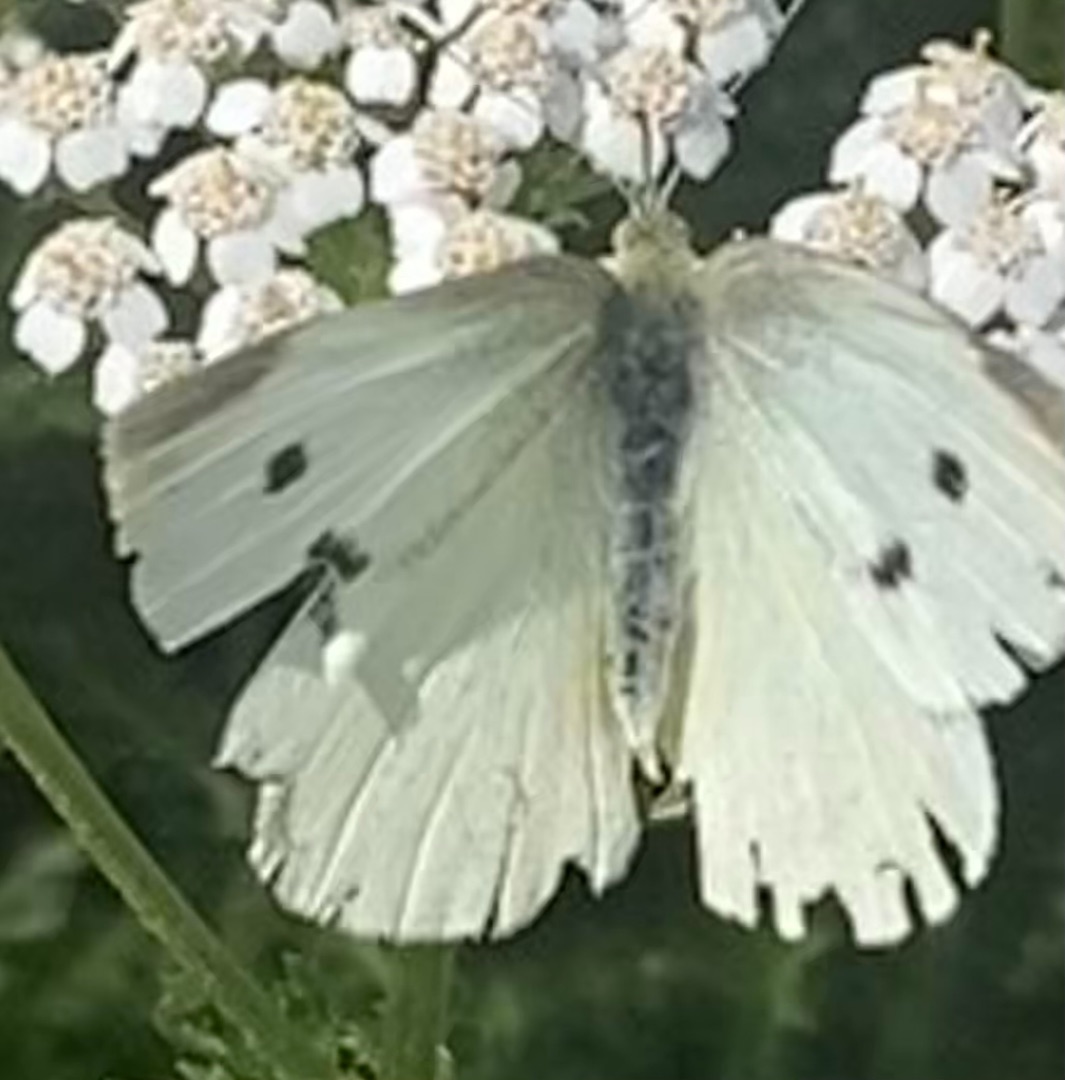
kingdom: Animalia
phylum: Arthropoda
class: Insecta
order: Lepidoptera
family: Pieridae
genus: Pieris
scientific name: Pieris rapae
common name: Lille kålsommerfugl
